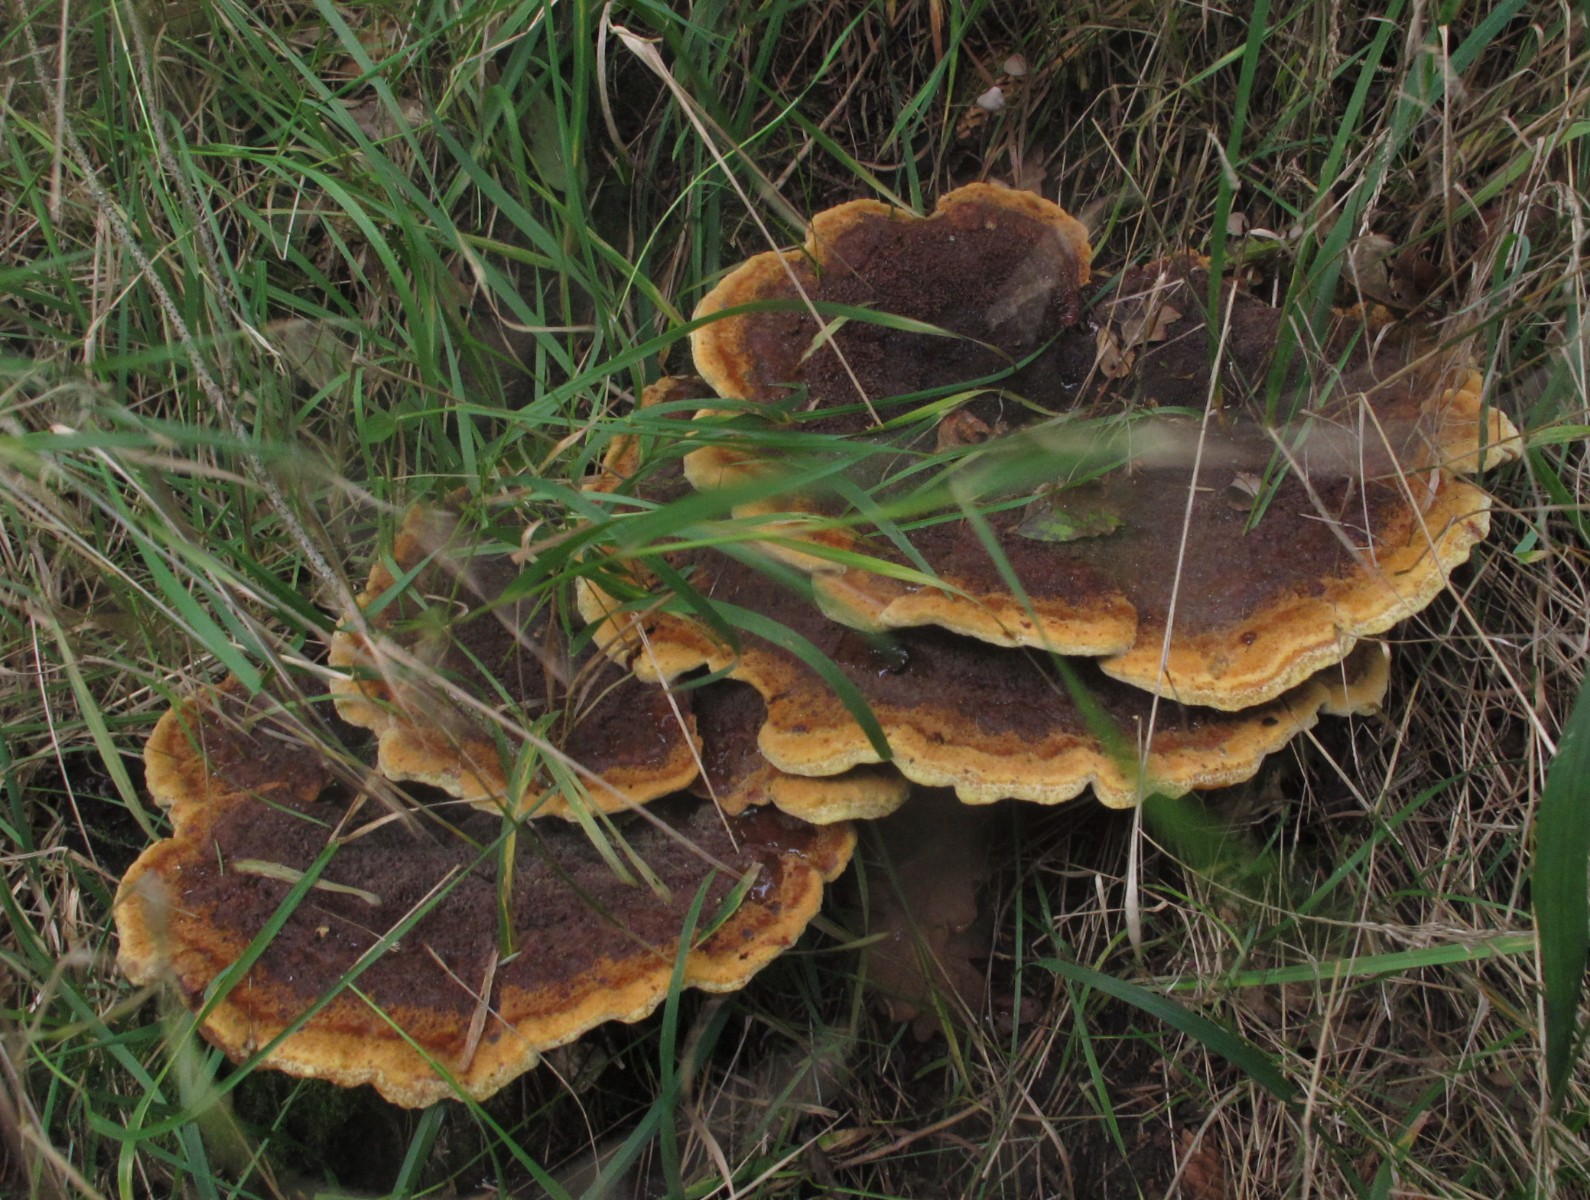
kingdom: Fungi
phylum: Basidiomycota
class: Agaricomycetes
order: Polyporales
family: Laetiporaceae
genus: Phaeolus
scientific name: Phaeolus schweinitzii
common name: brunporesvamp
